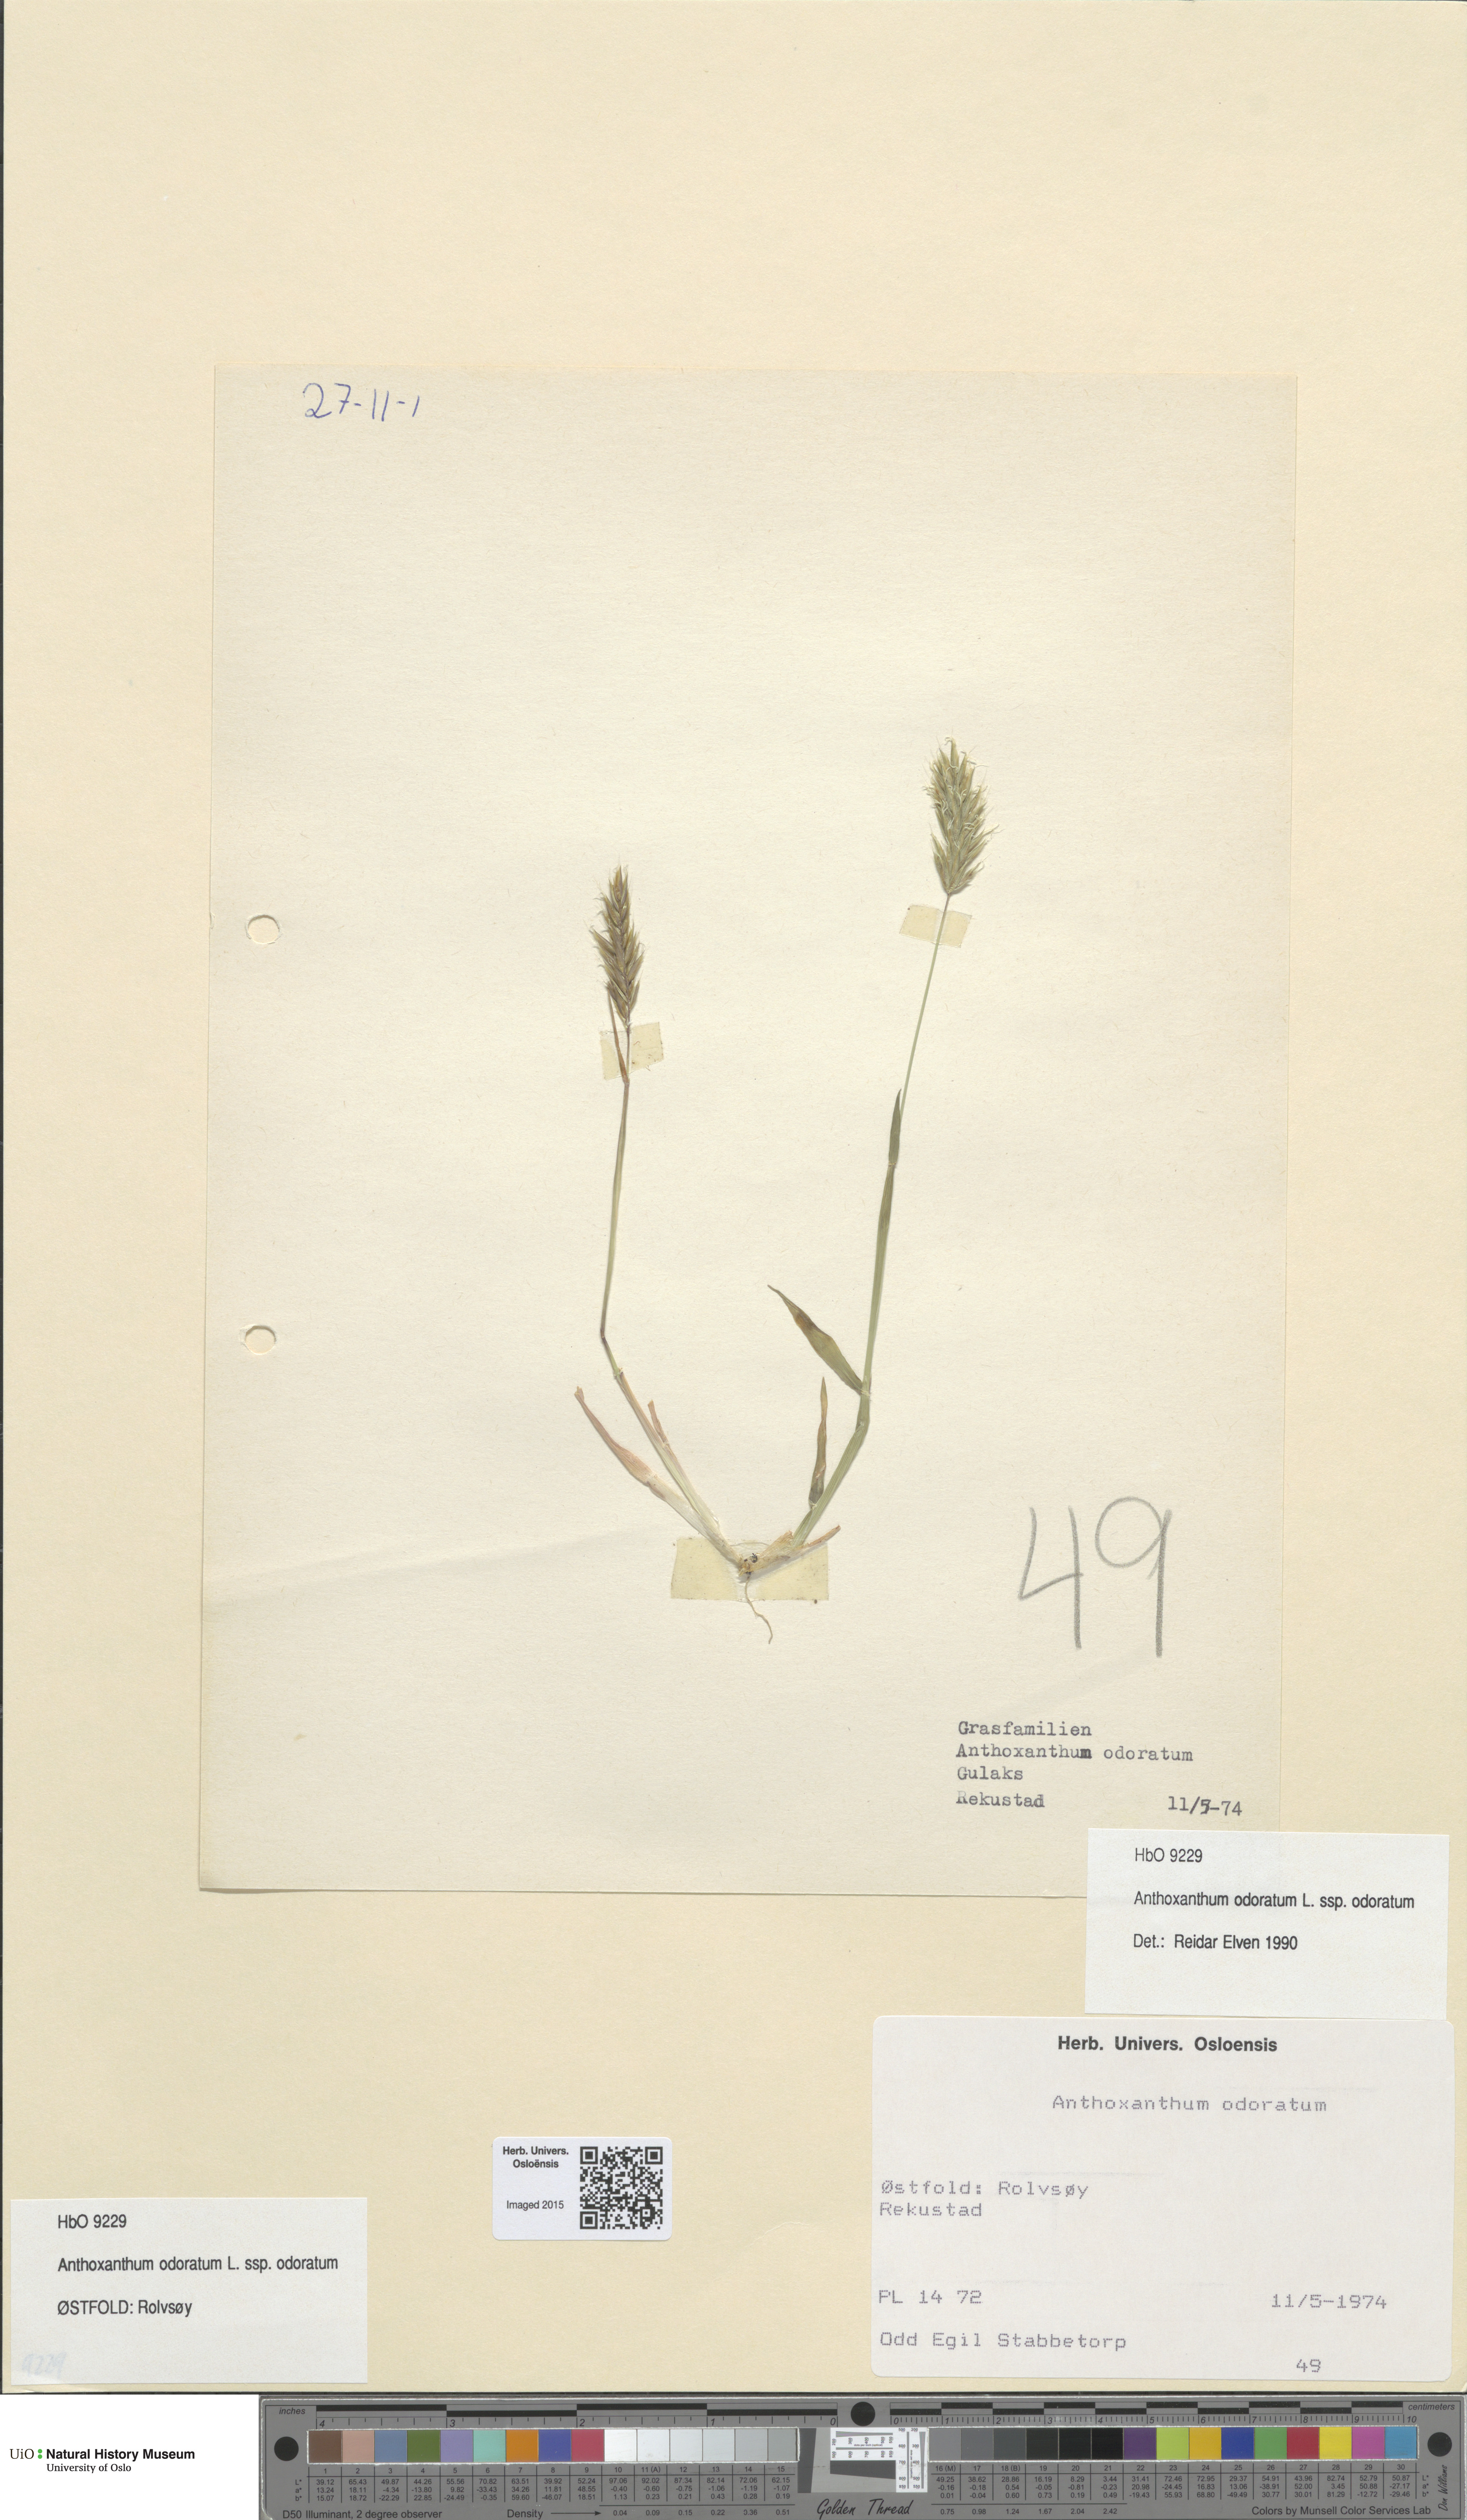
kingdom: Plantae
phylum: Tracheophyta
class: Liliopsida
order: Poales
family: Poaceae
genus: Anthoxanthum
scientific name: Anthoxanthum odoratum
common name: Sweet vernalgrass
